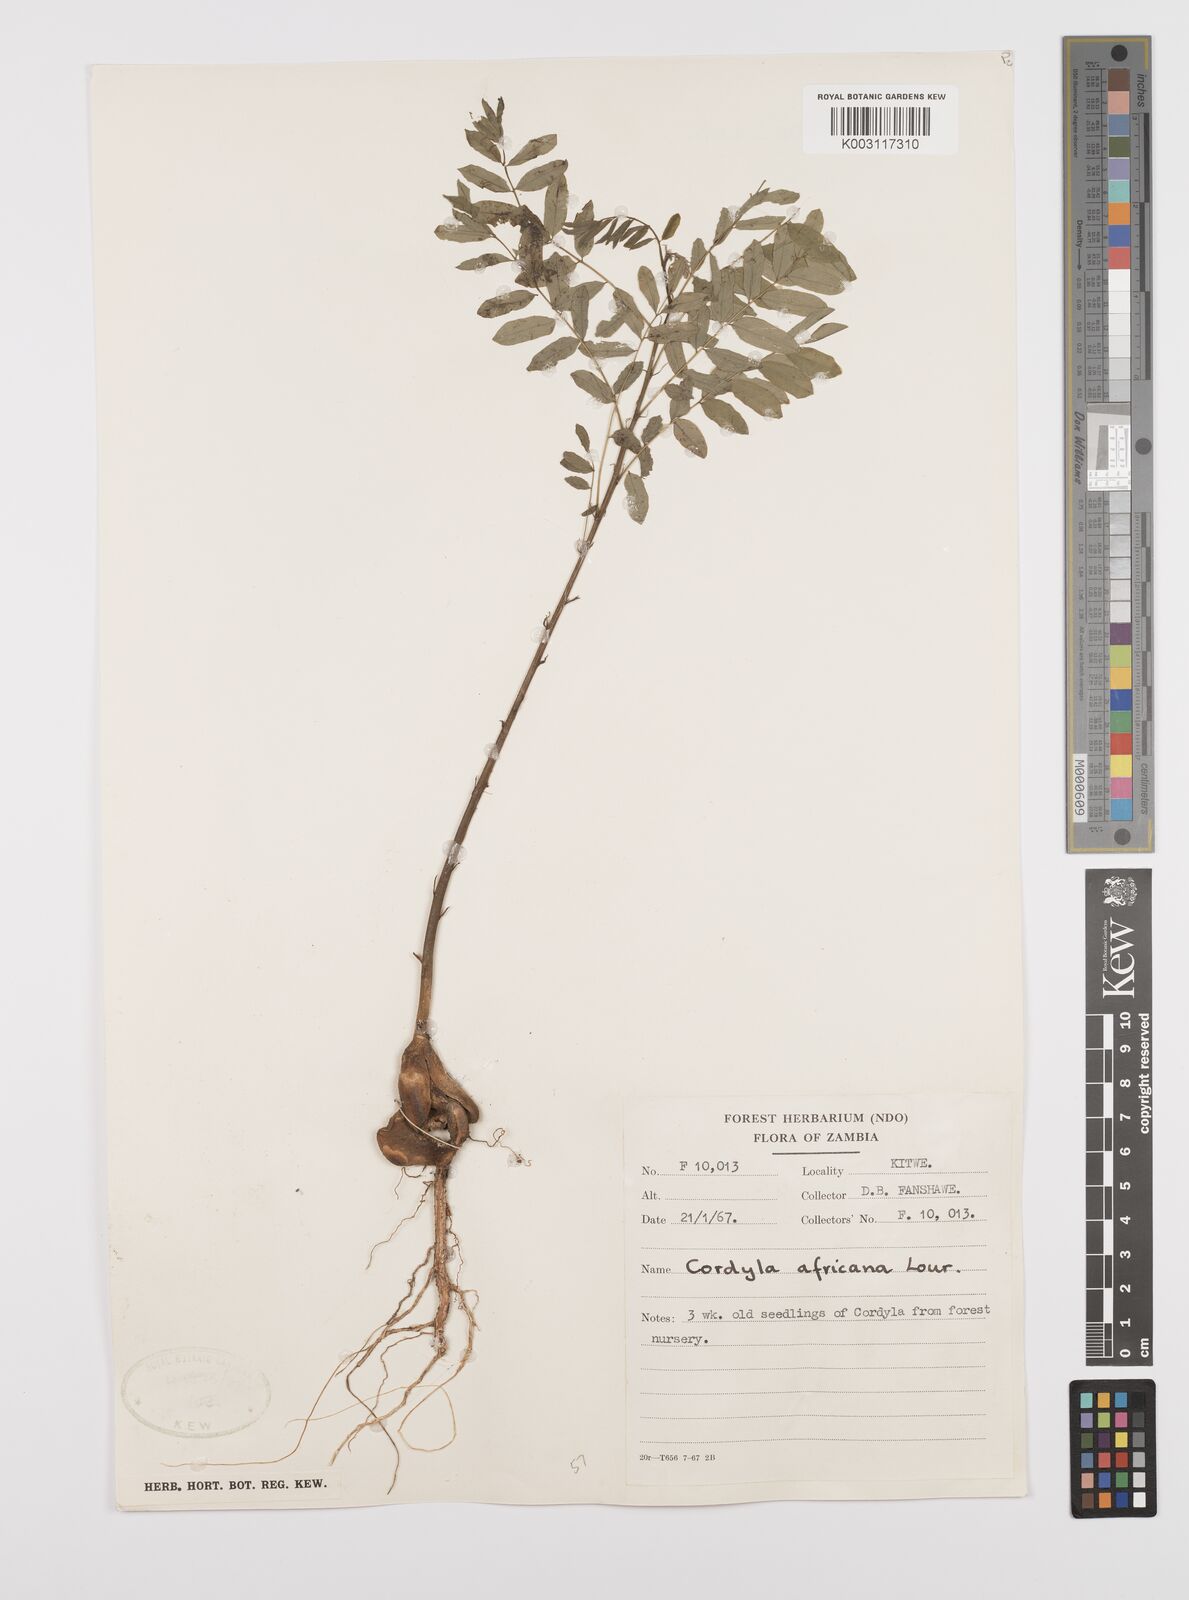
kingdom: Plantae
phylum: Tracheophyta
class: Magnoliopsida
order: Fabales
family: Fabaceae
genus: Cordyla
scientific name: Cordyla africana
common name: Wild mango
